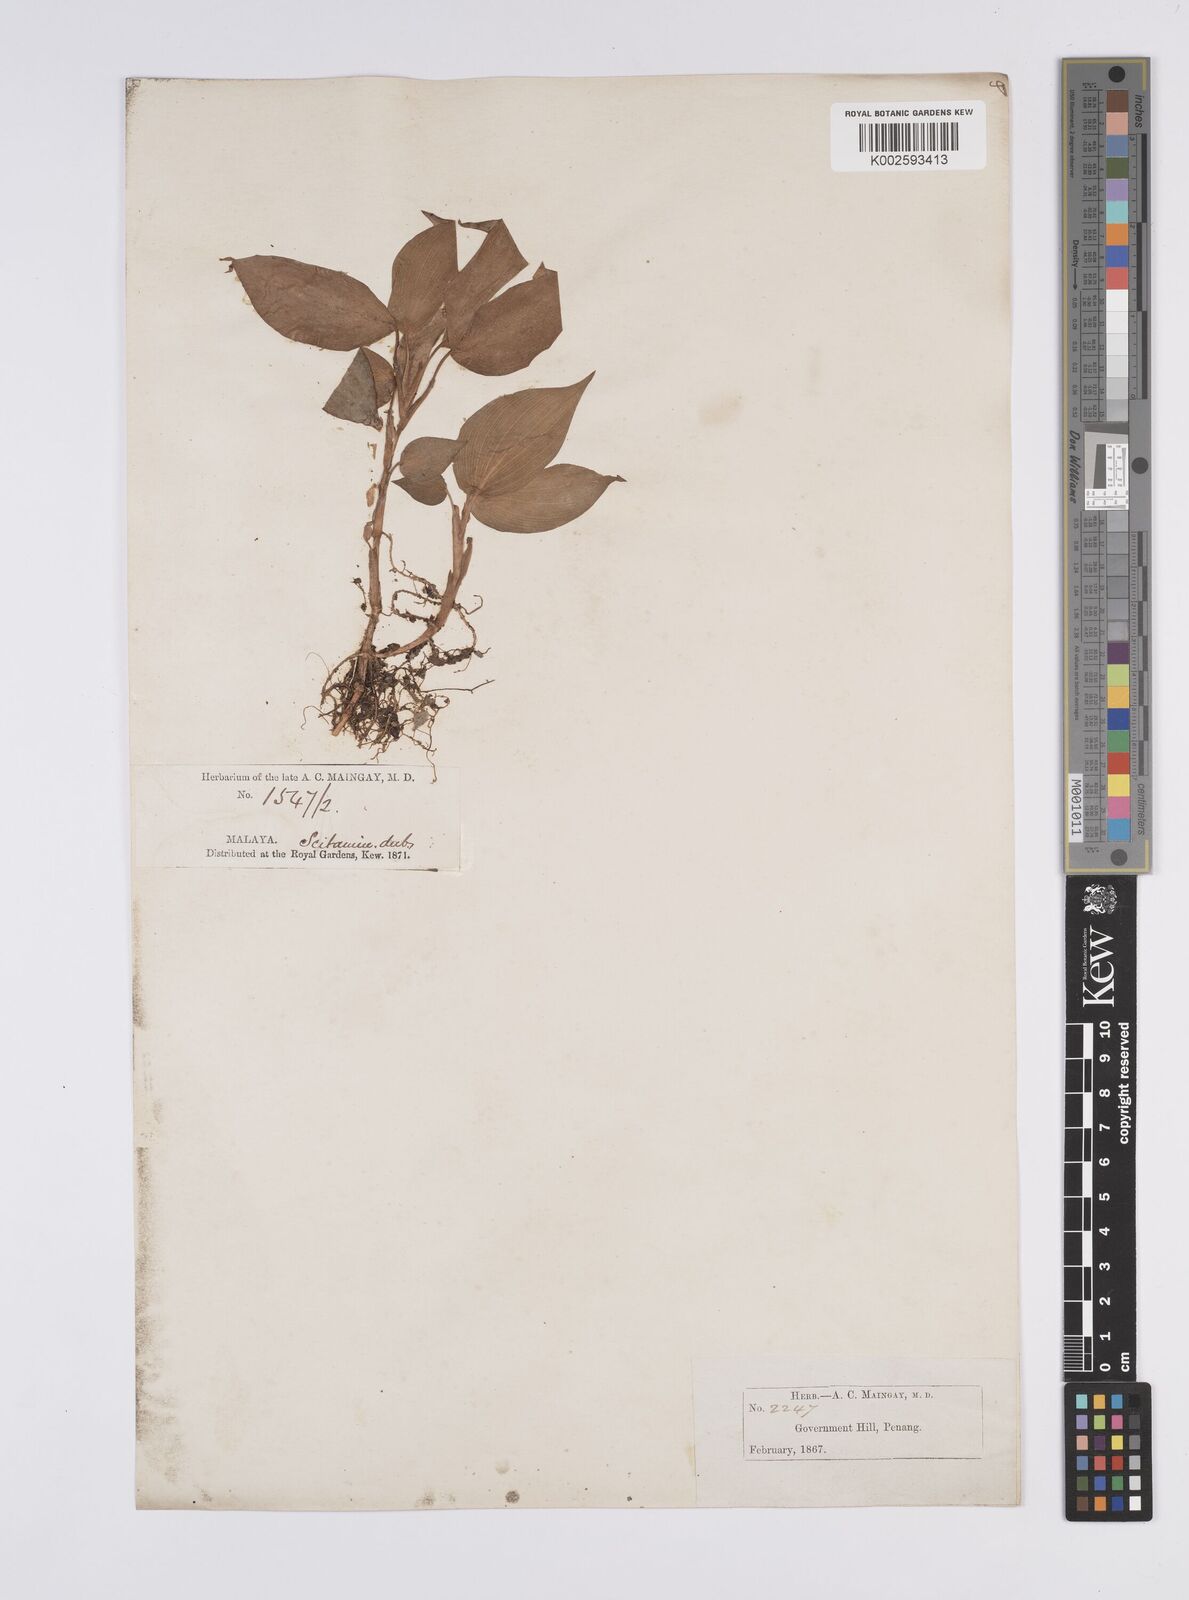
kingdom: Plantae
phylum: Tracheophyta
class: Liliopsida
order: Zingiberales
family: Zingiberaceae
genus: Camptandra
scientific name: Camptandra parvula
